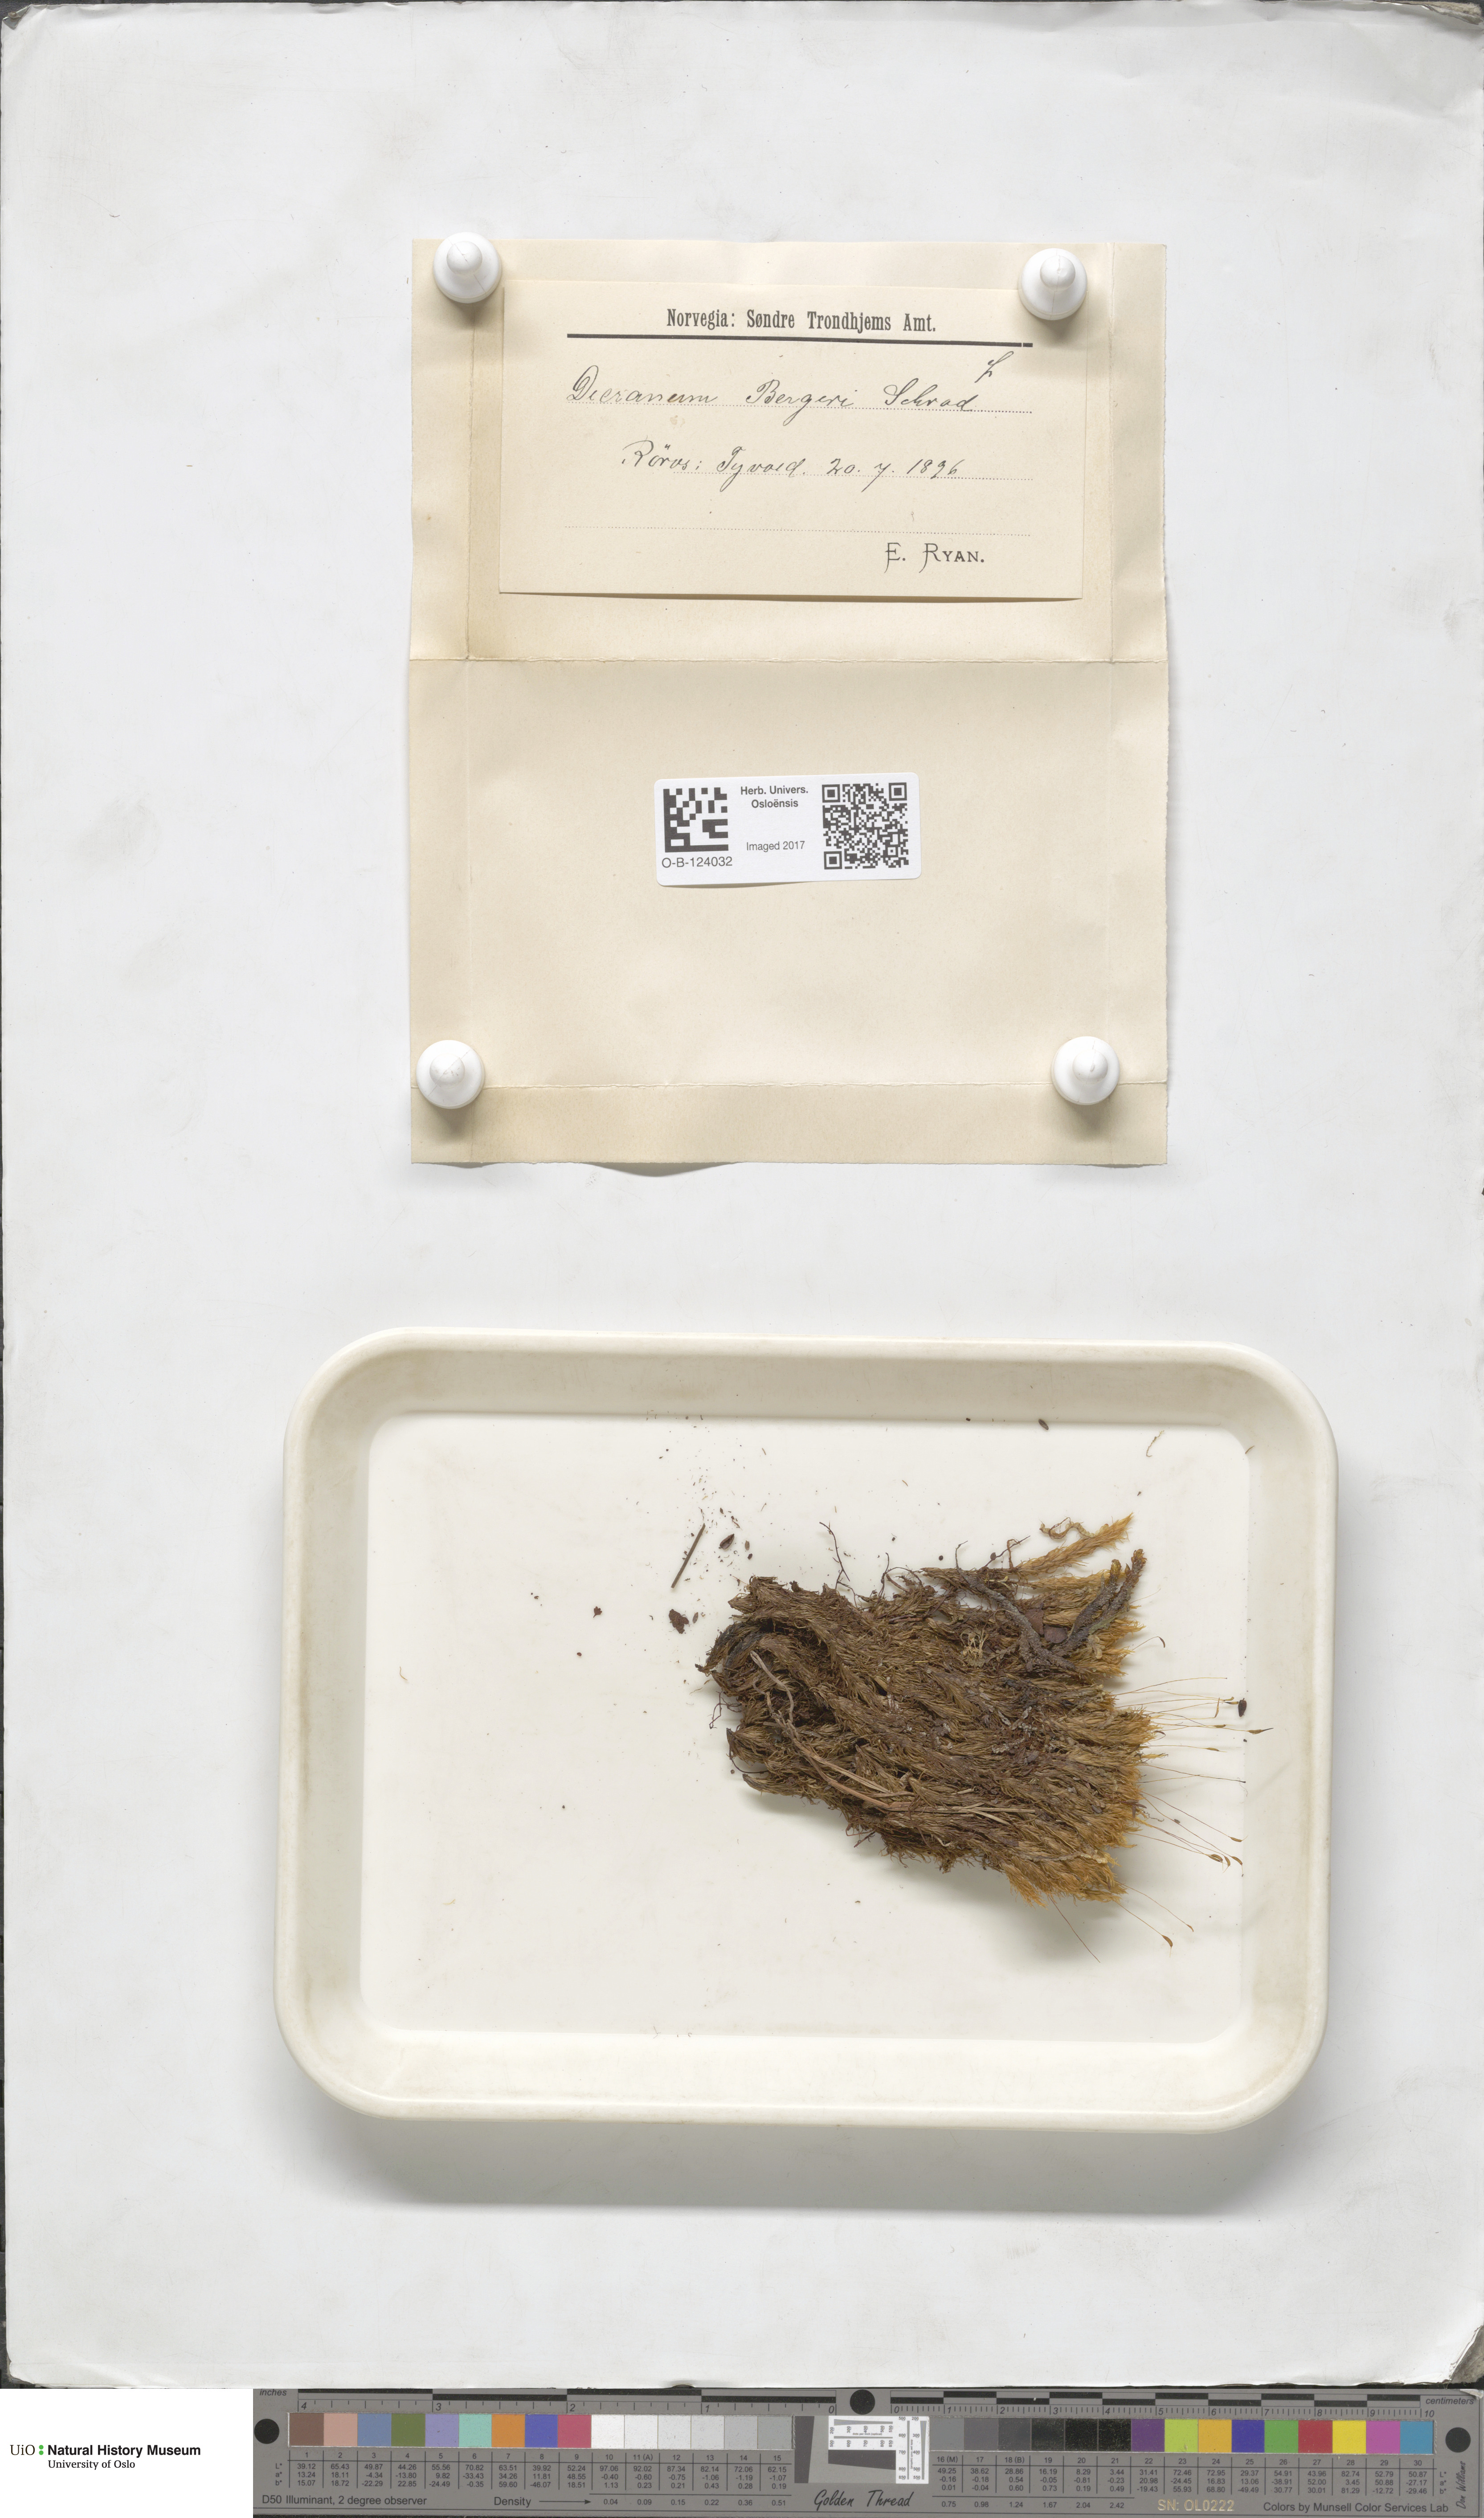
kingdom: Plantae
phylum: Bryophyta
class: Bryopsida
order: Dicranales
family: Dicranaceae
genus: Dicranum
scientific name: Dicranum undulatum
